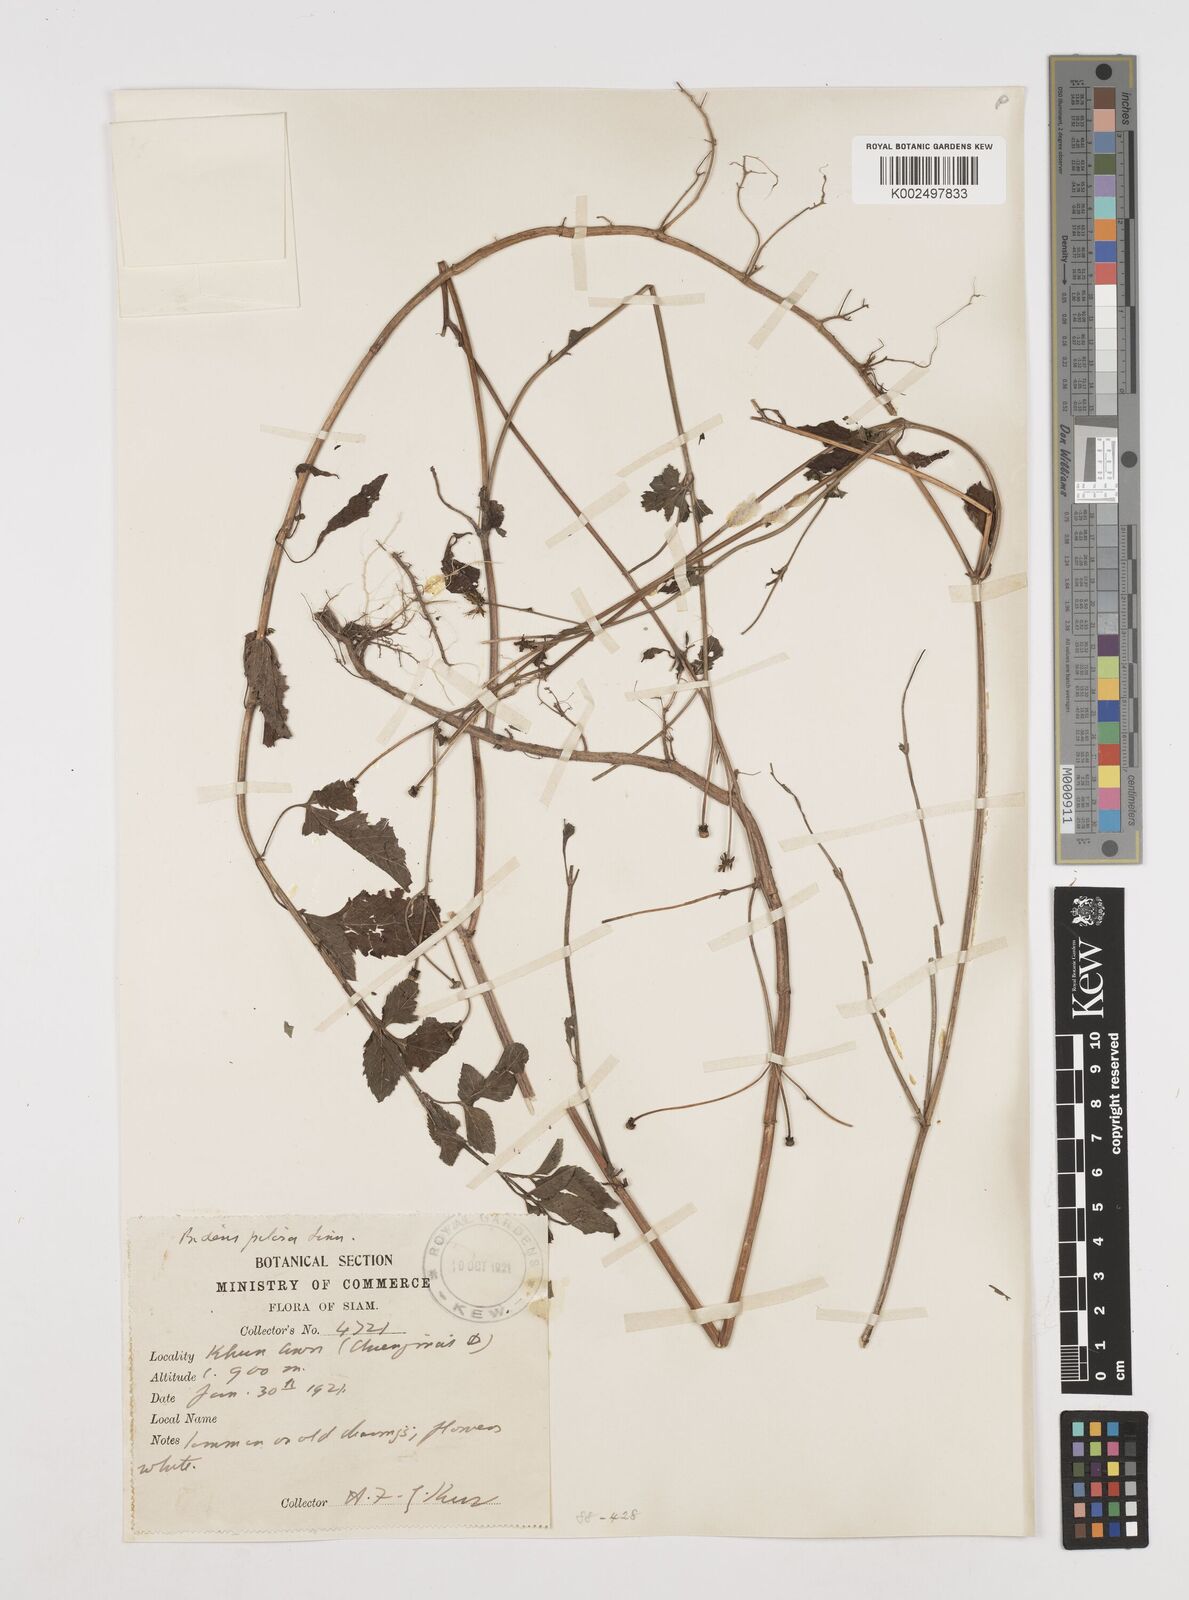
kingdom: Plantae
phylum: Tracheophyta
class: Magnoliopsida
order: Asterales
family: Asteraceae
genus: Bidens
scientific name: Bidens pilosa
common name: Black-jack
